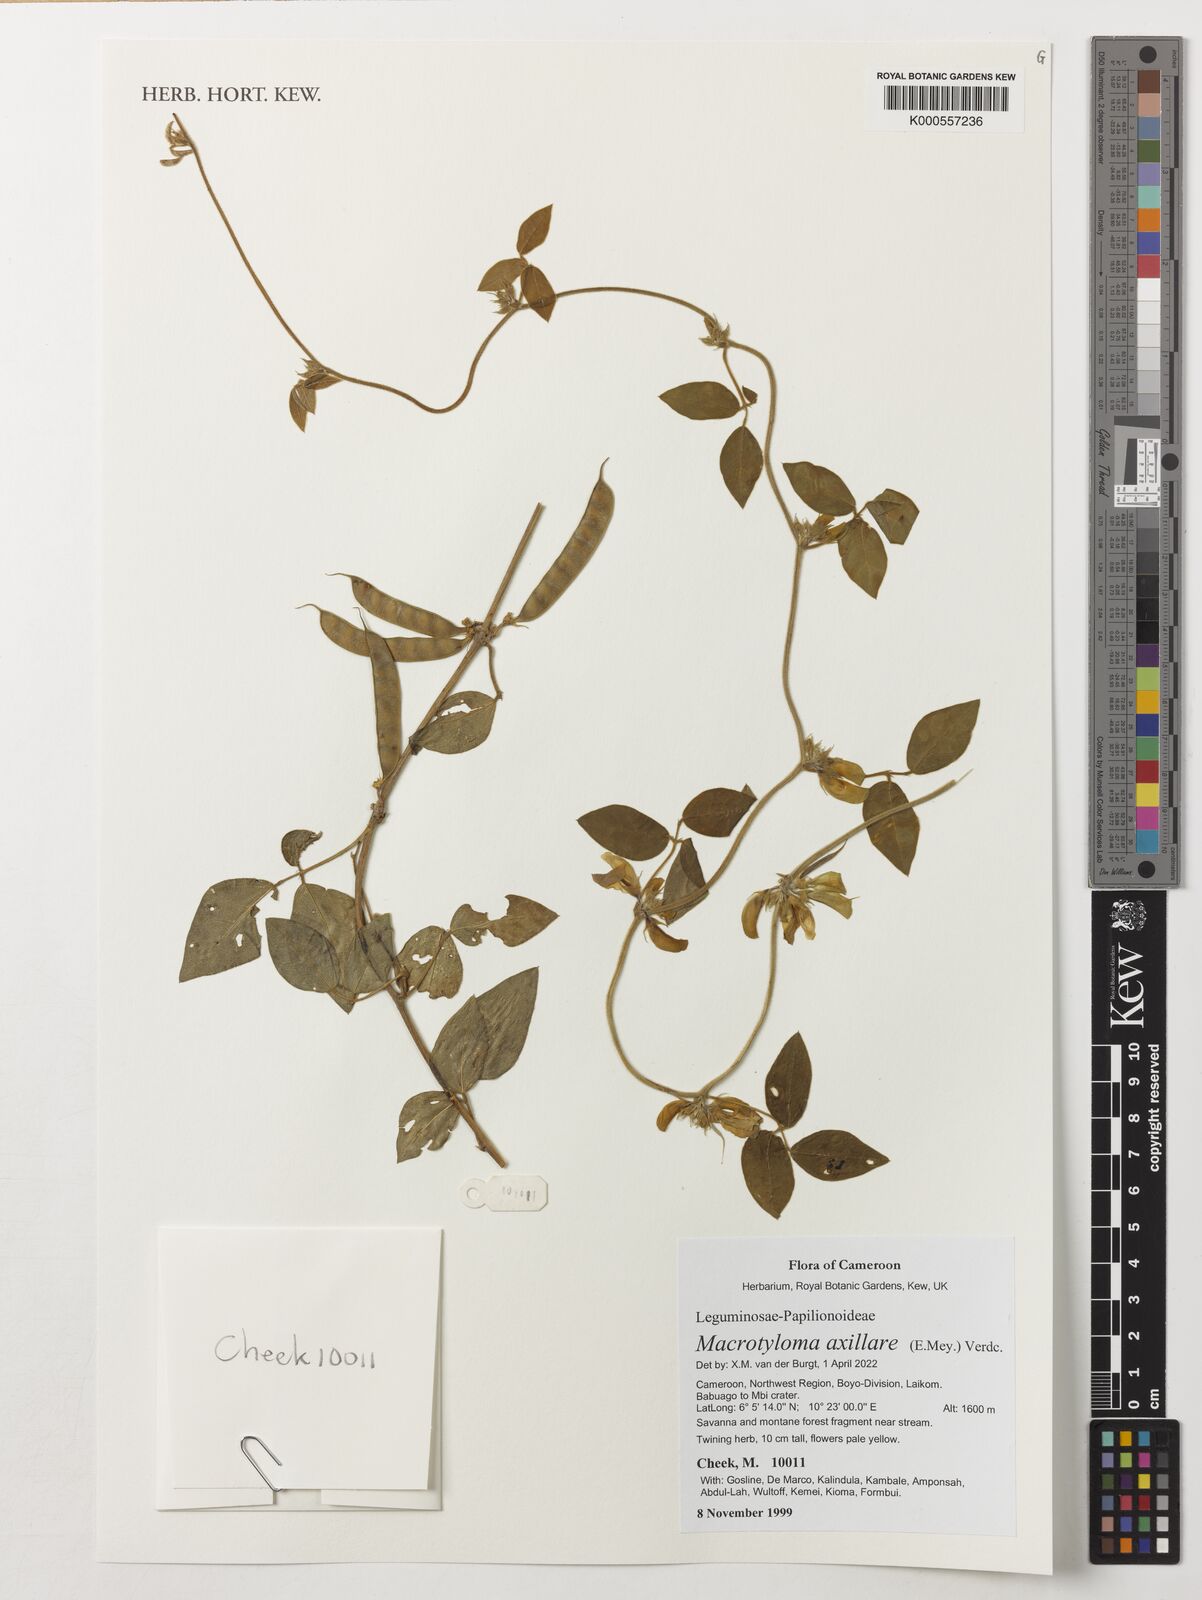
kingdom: Plantae
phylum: Tracheophyta
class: Magnoliopsida
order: Fabales
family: Fabaceae
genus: Macrotyloma
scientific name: Macrotyloma axillare
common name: Perennial horsegram
